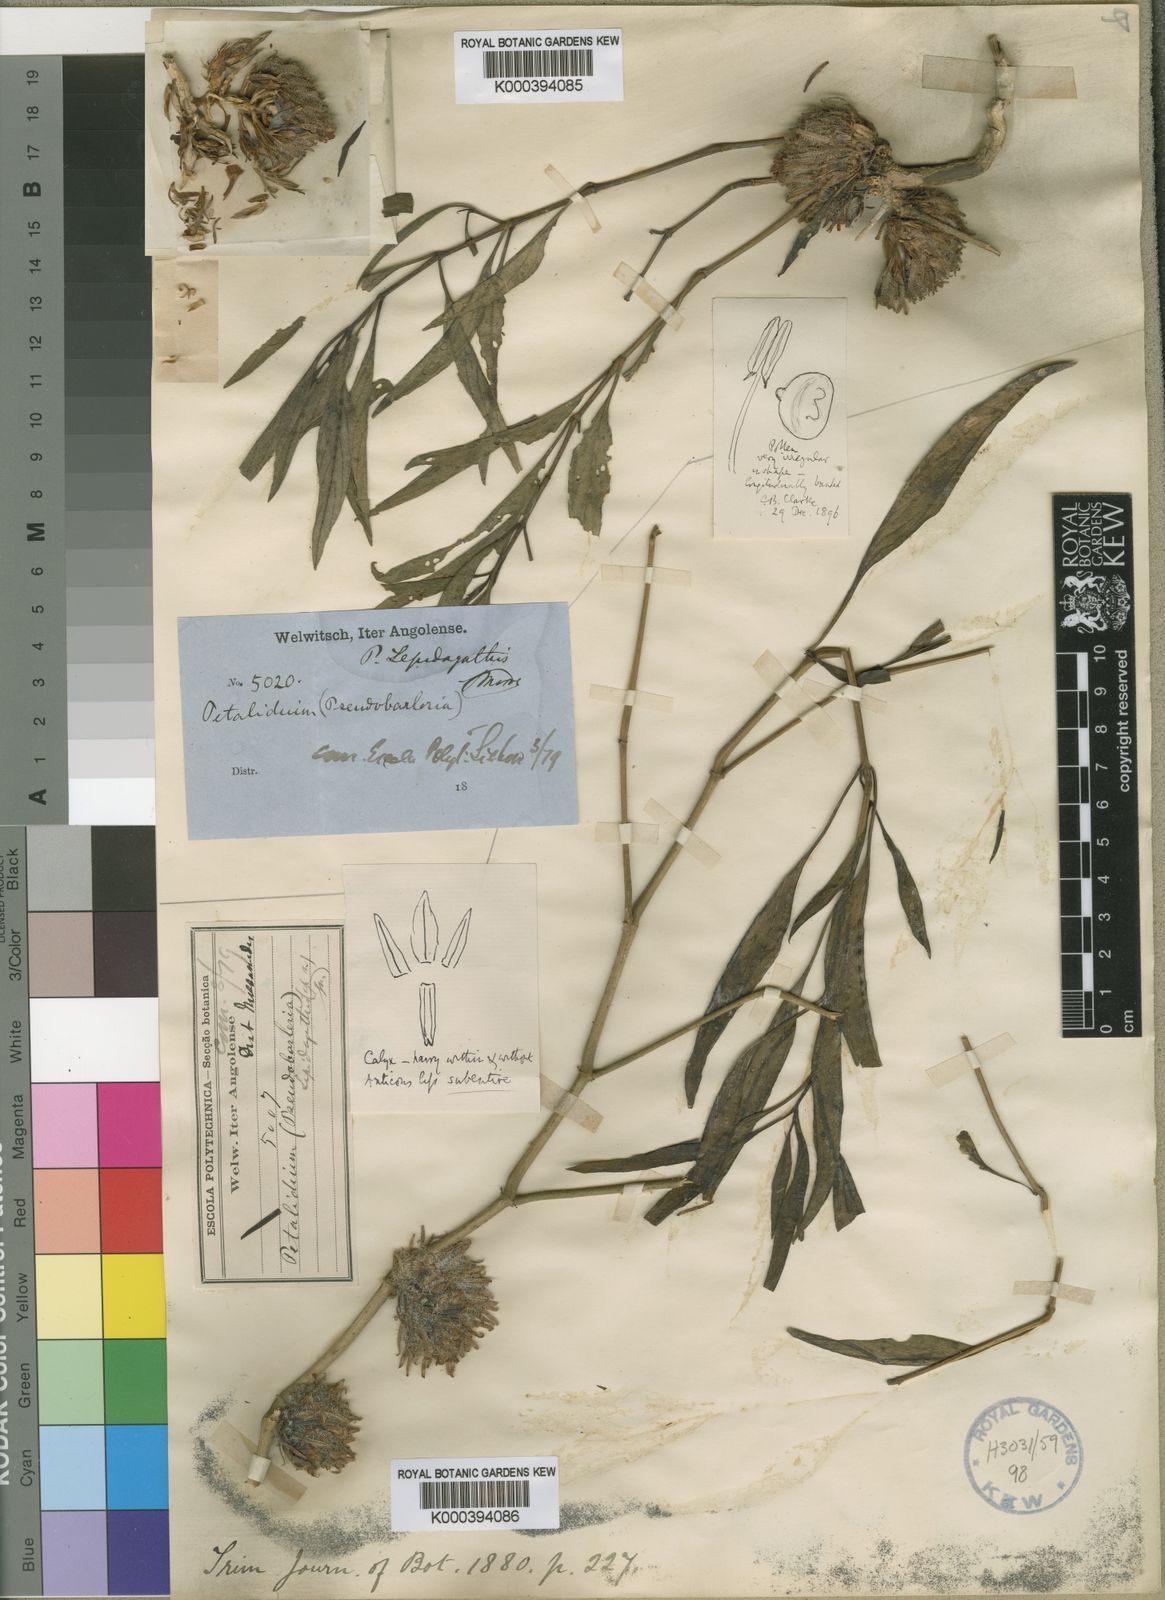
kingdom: Plantae
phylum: Tracheophyta
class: Magnoliopsida
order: Lamiales
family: Acanthaceae
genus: Petalidium
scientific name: Petalidium lepidagathis
